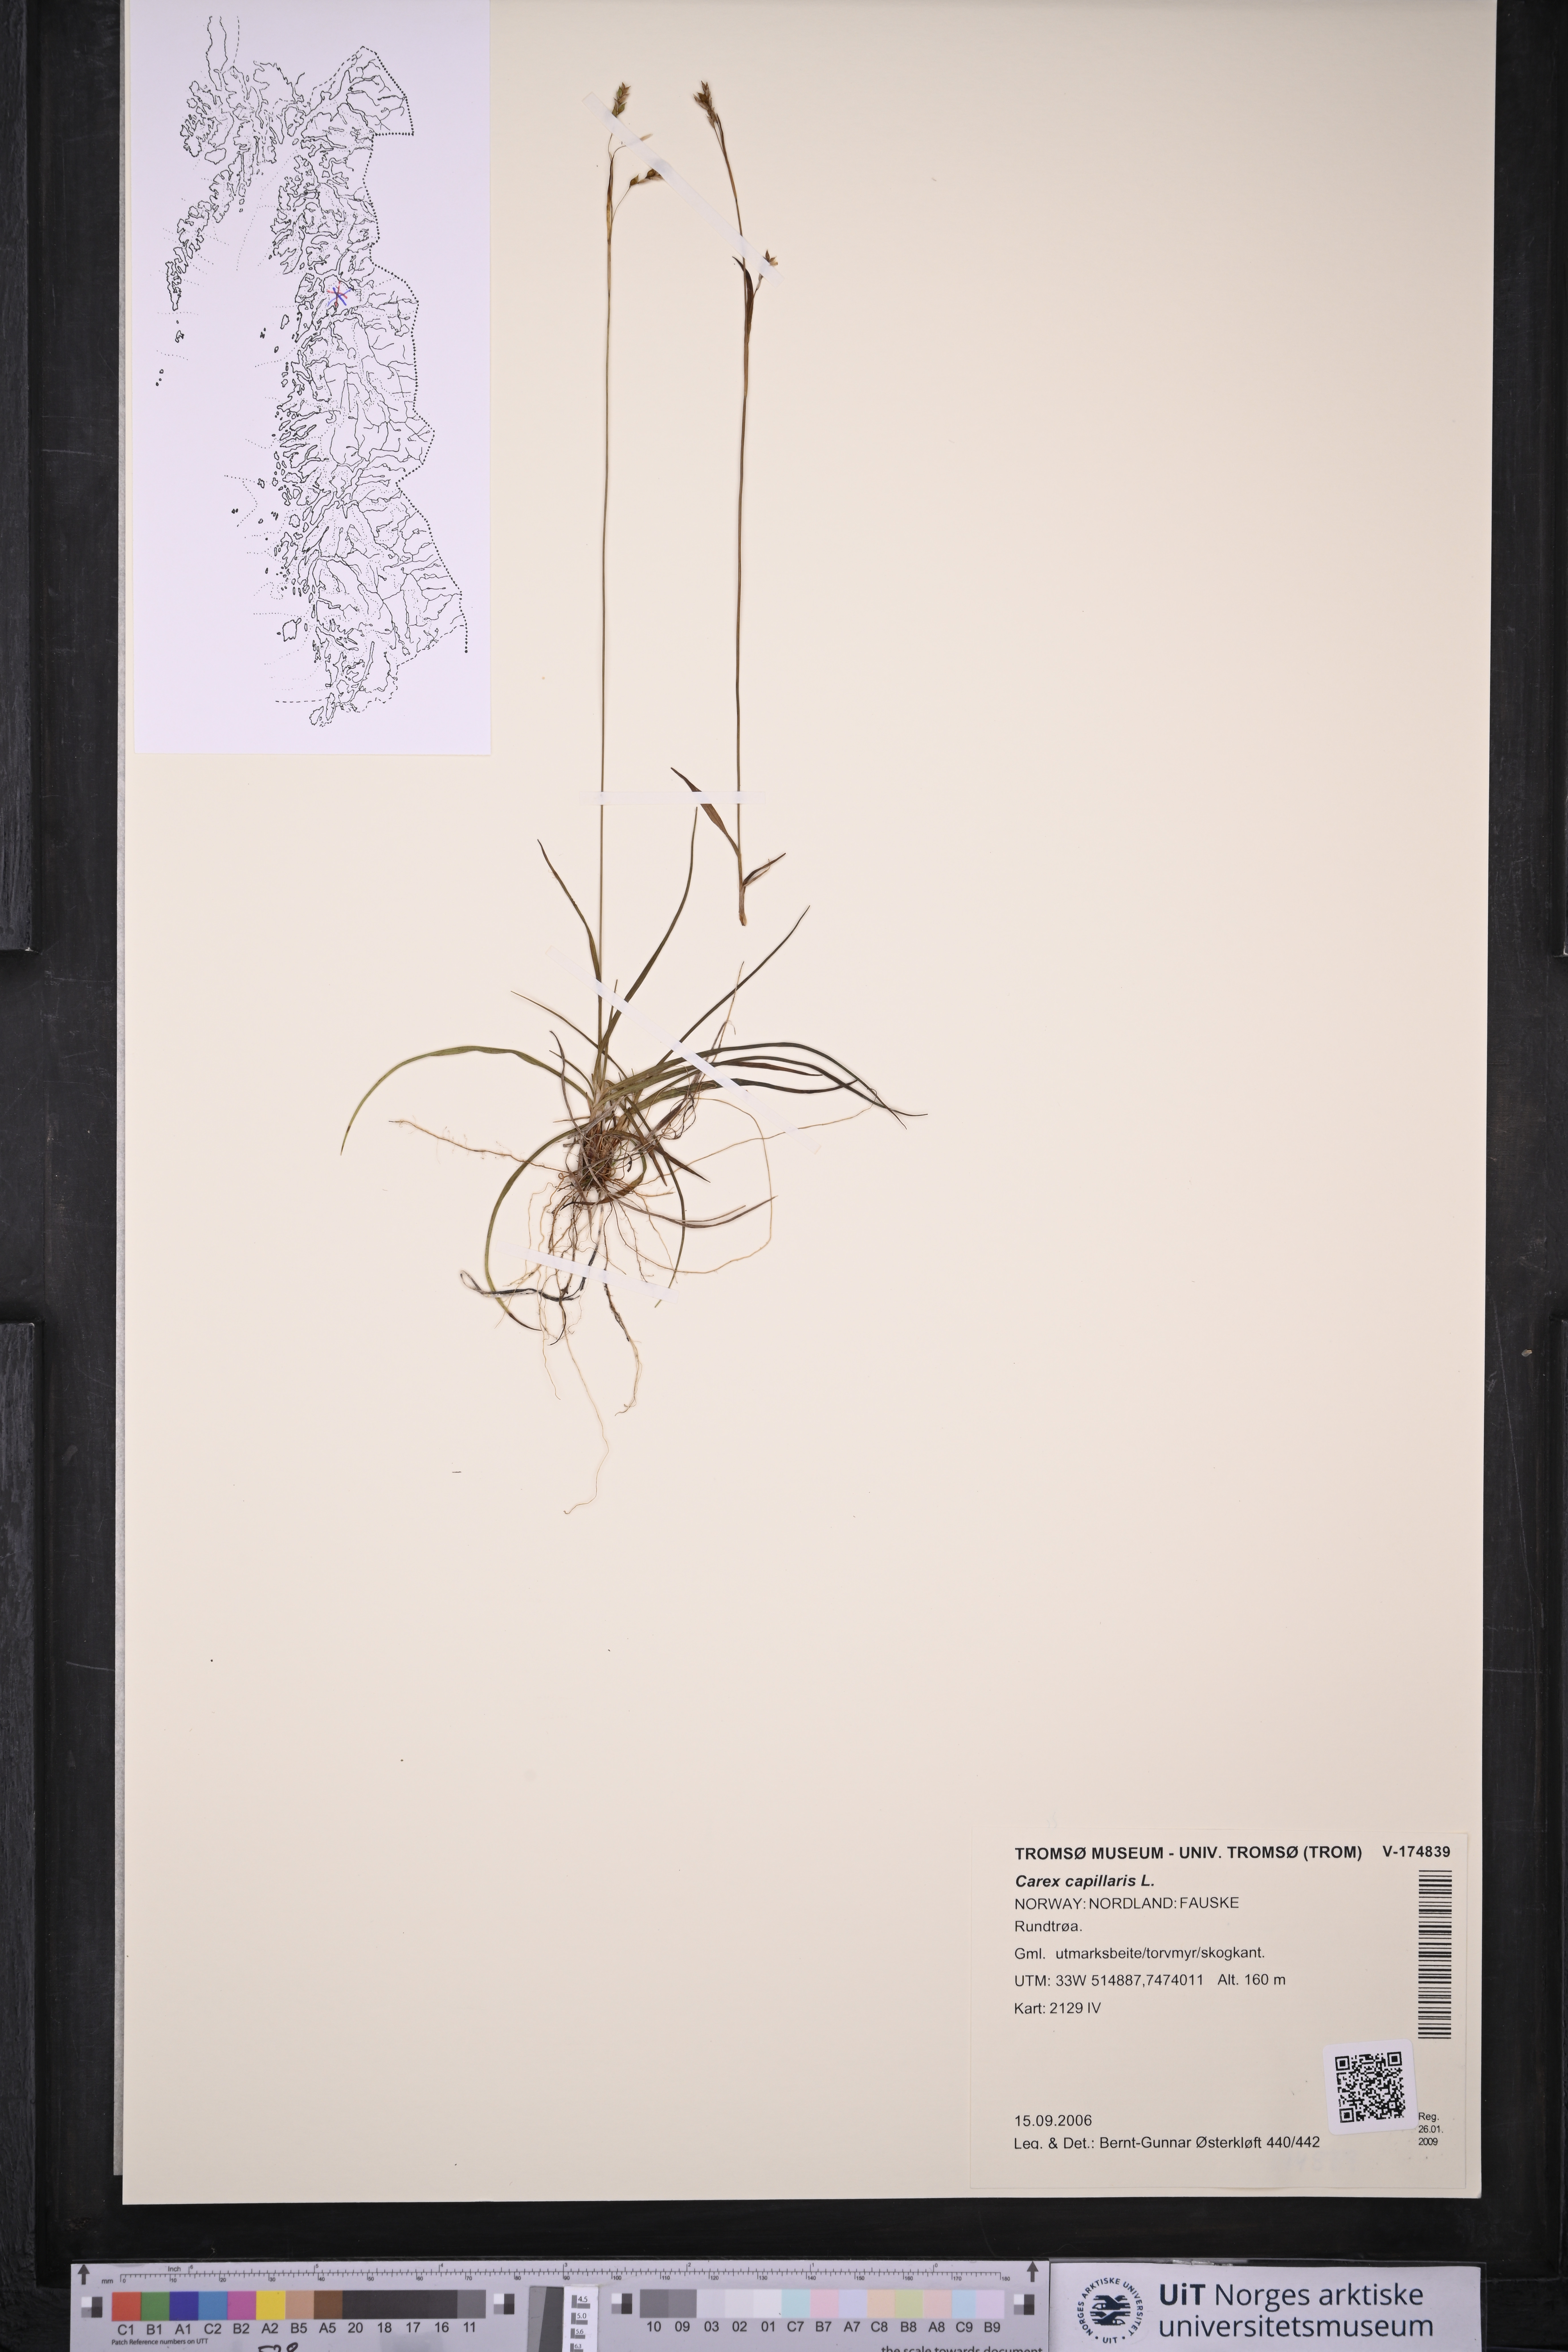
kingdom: Plantae
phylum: Tracheophyta
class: Liliopsida
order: Poales
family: Cyperaceae
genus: Carex
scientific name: Carex capillaris
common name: Hair sedge
